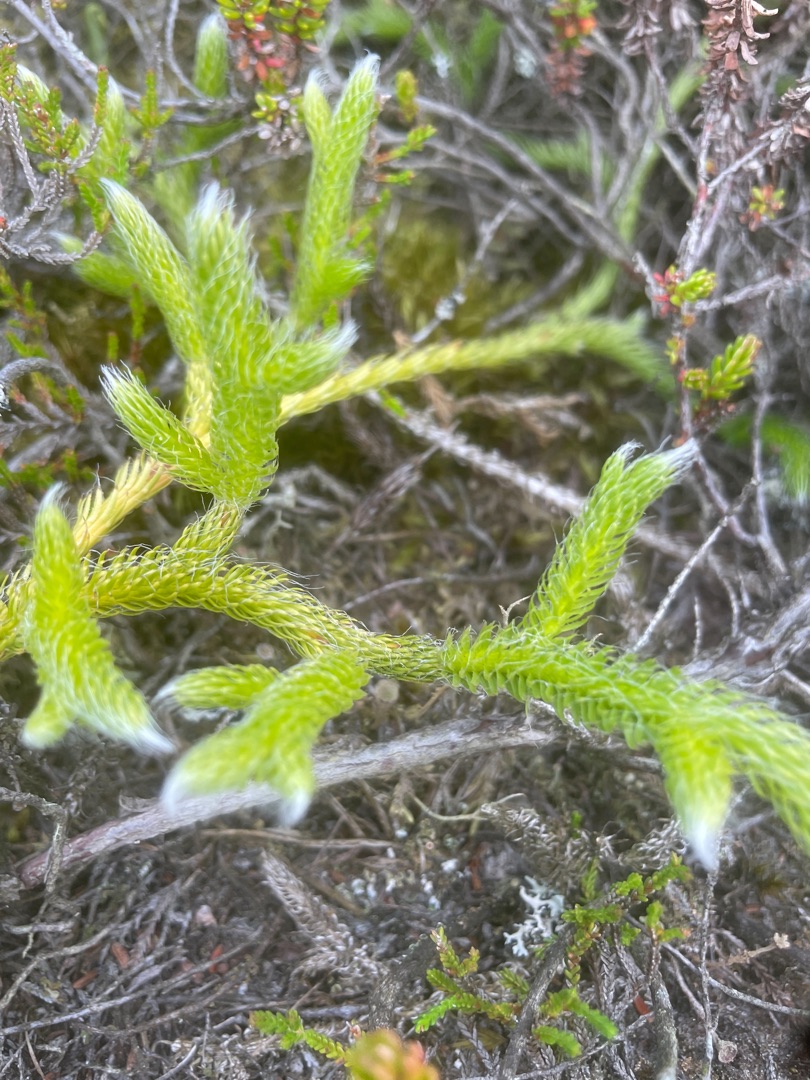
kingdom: Plantae
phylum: Tracheophyta
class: Lycopodiopsida
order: Lycopodiales
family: Lycopodiaceae
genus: Lycopodium
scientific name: Lycopodium clavatum
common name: Almindelig ulvefod
